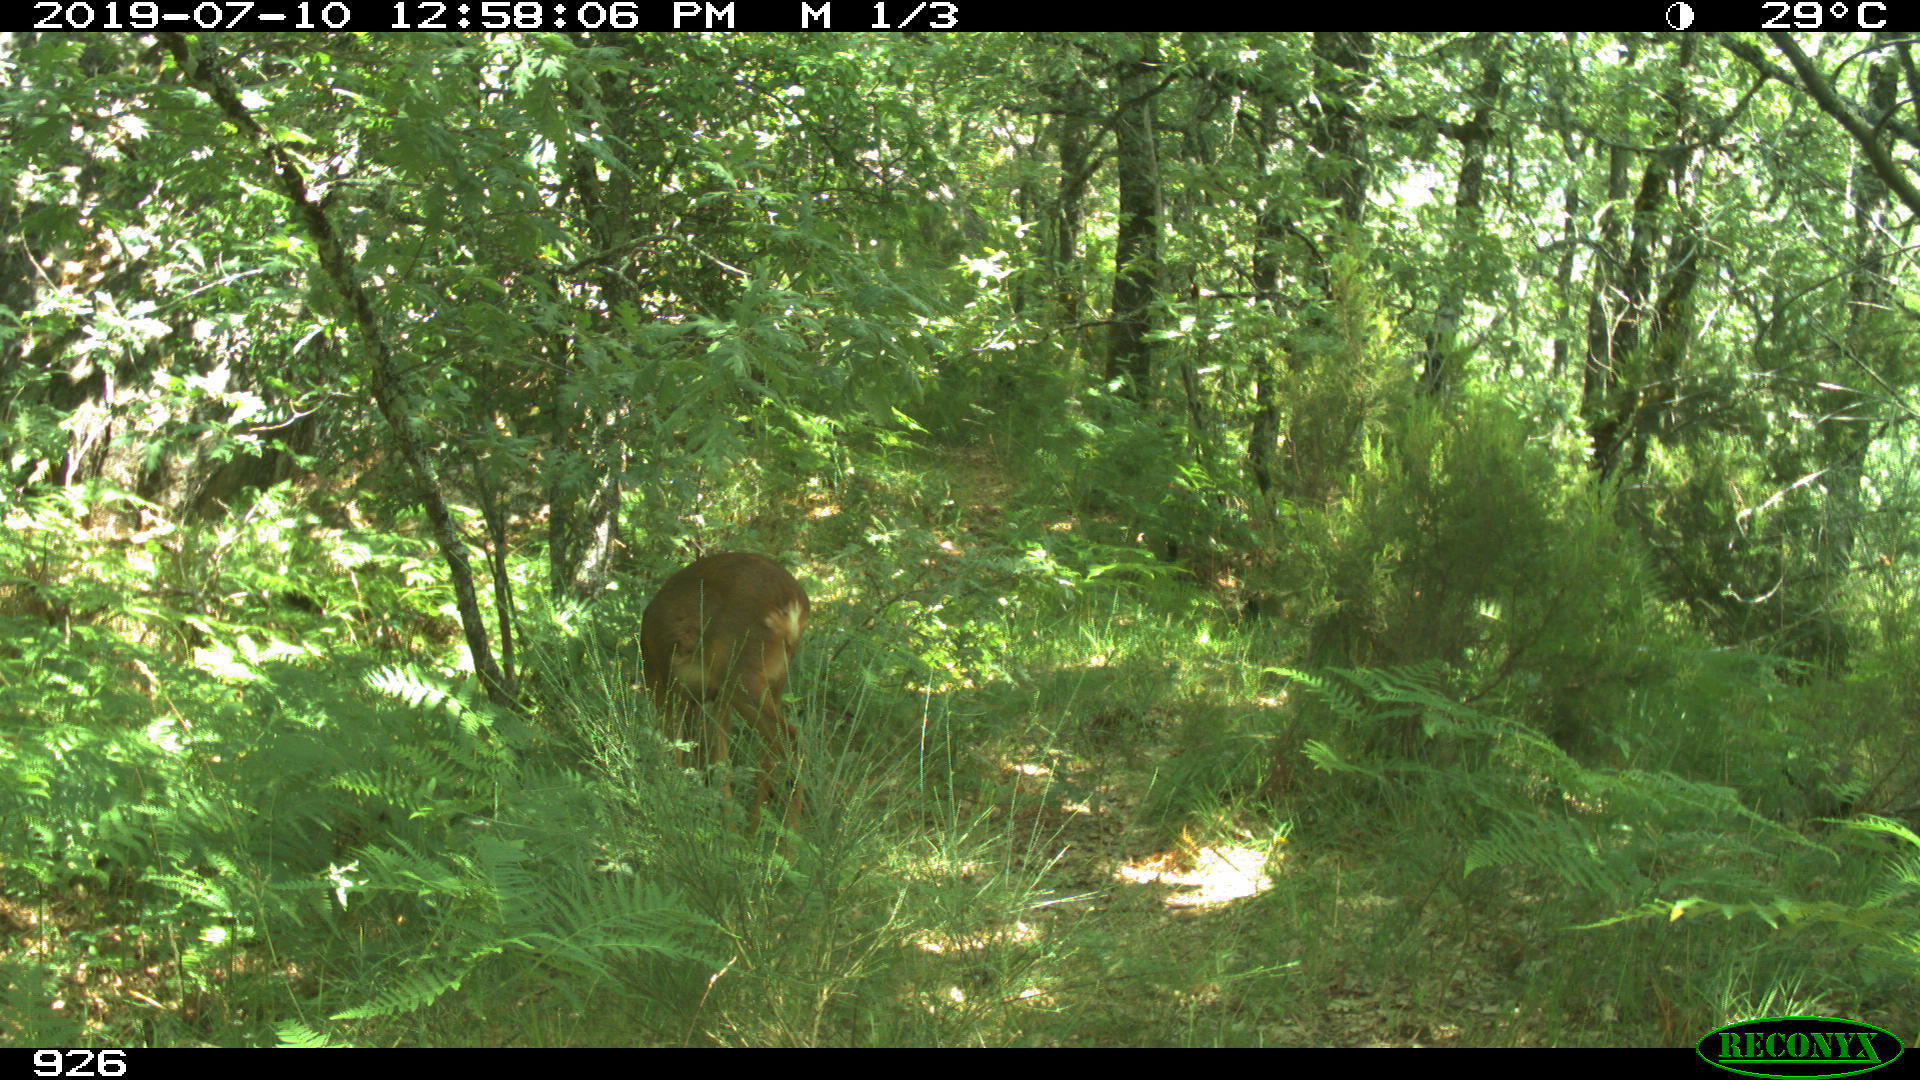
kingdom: Animalia
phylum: Chordata
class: Mammalia
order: Artiodactyla
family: Cervidae
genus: Capreolus
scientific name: Capreolus capreolus
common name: Western roe deer
